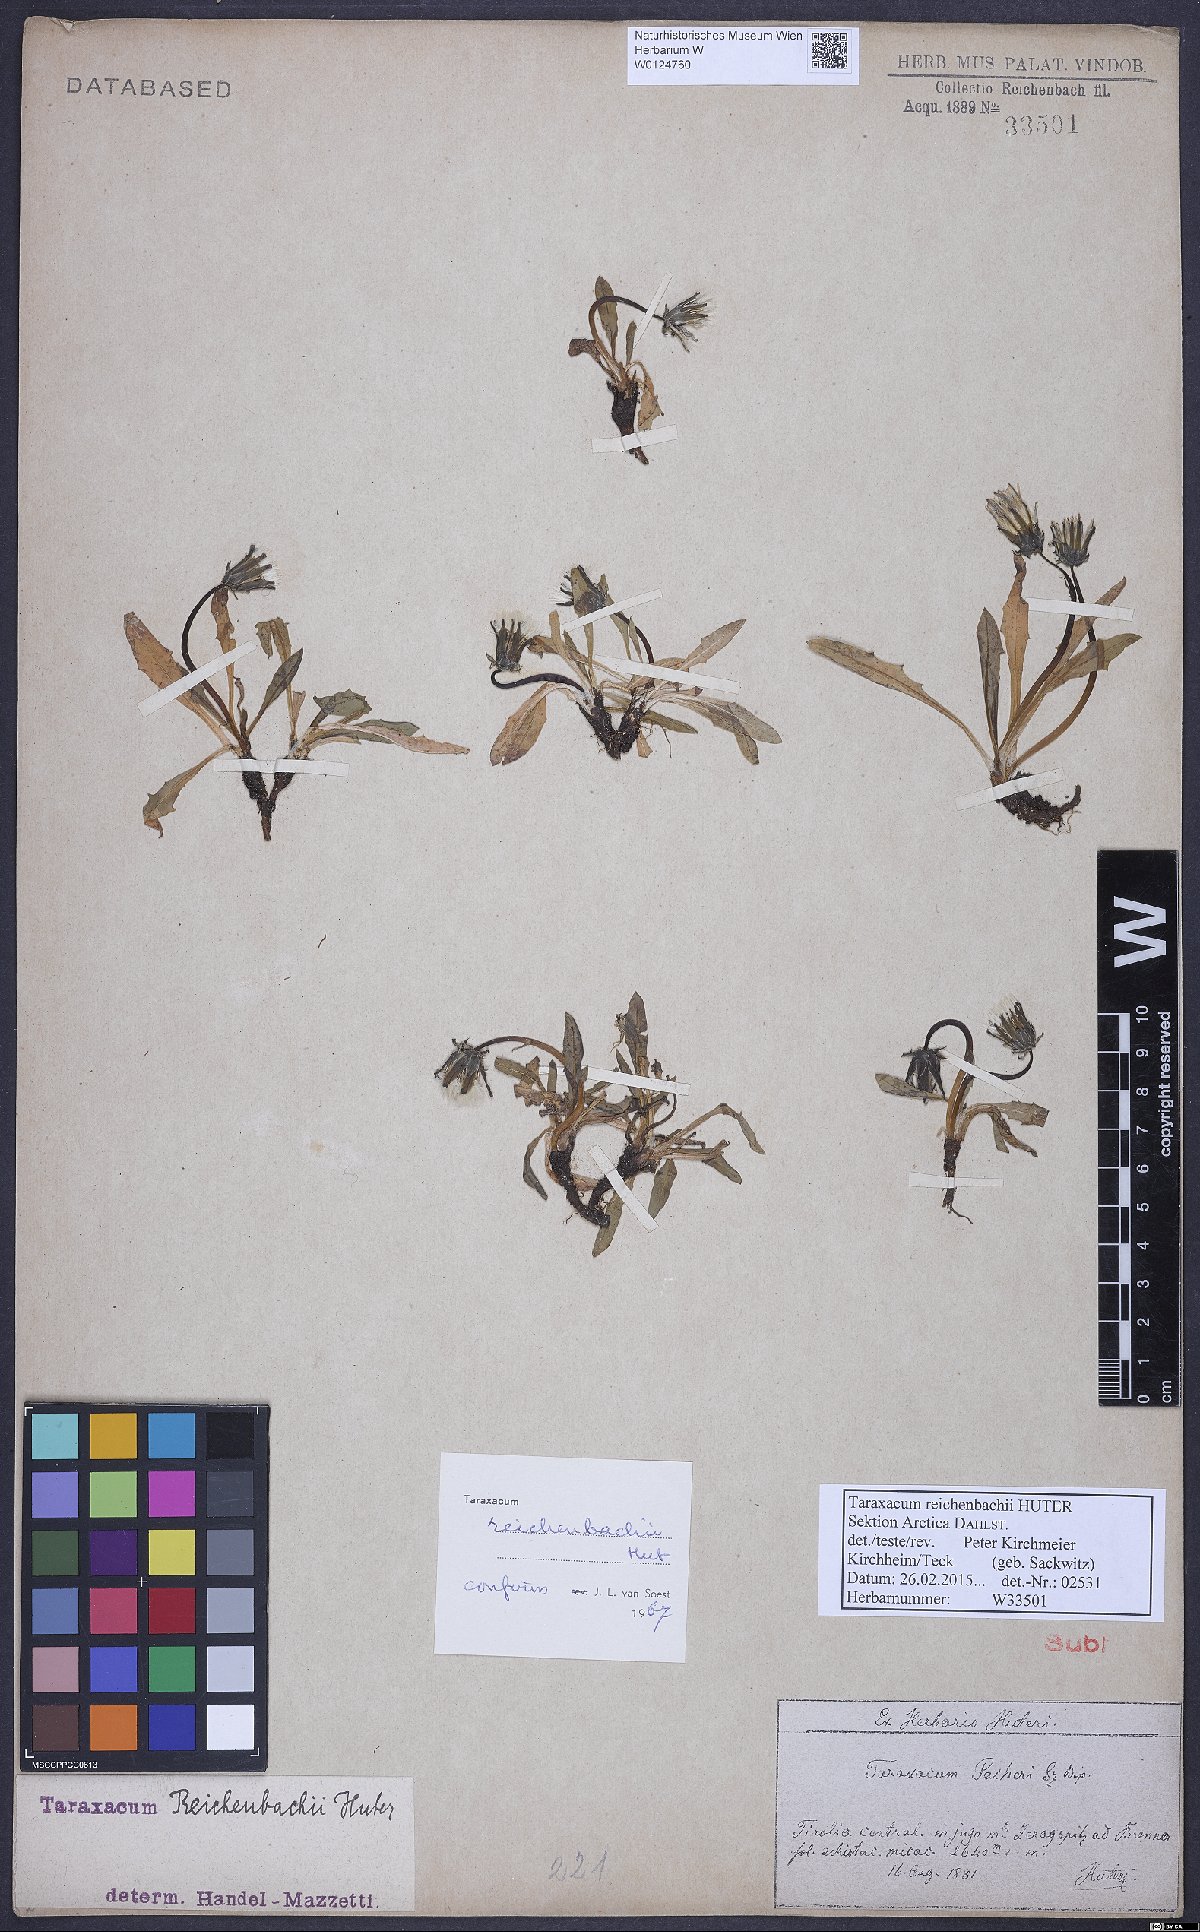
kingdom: Plantae
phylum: Tracheophyta
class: Magnoliopsida
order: Asterales
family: Asteraceae
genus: Taraxacum
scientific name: Taraxacum reichenbachii
